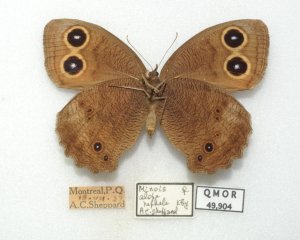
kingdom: Animalia
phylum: Arthropoda
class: Insecta
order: Lepidoptera
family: Nymphalidae
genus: Cercyonis
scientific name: Cercyonis pegala
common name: Common Wood-Nymph
